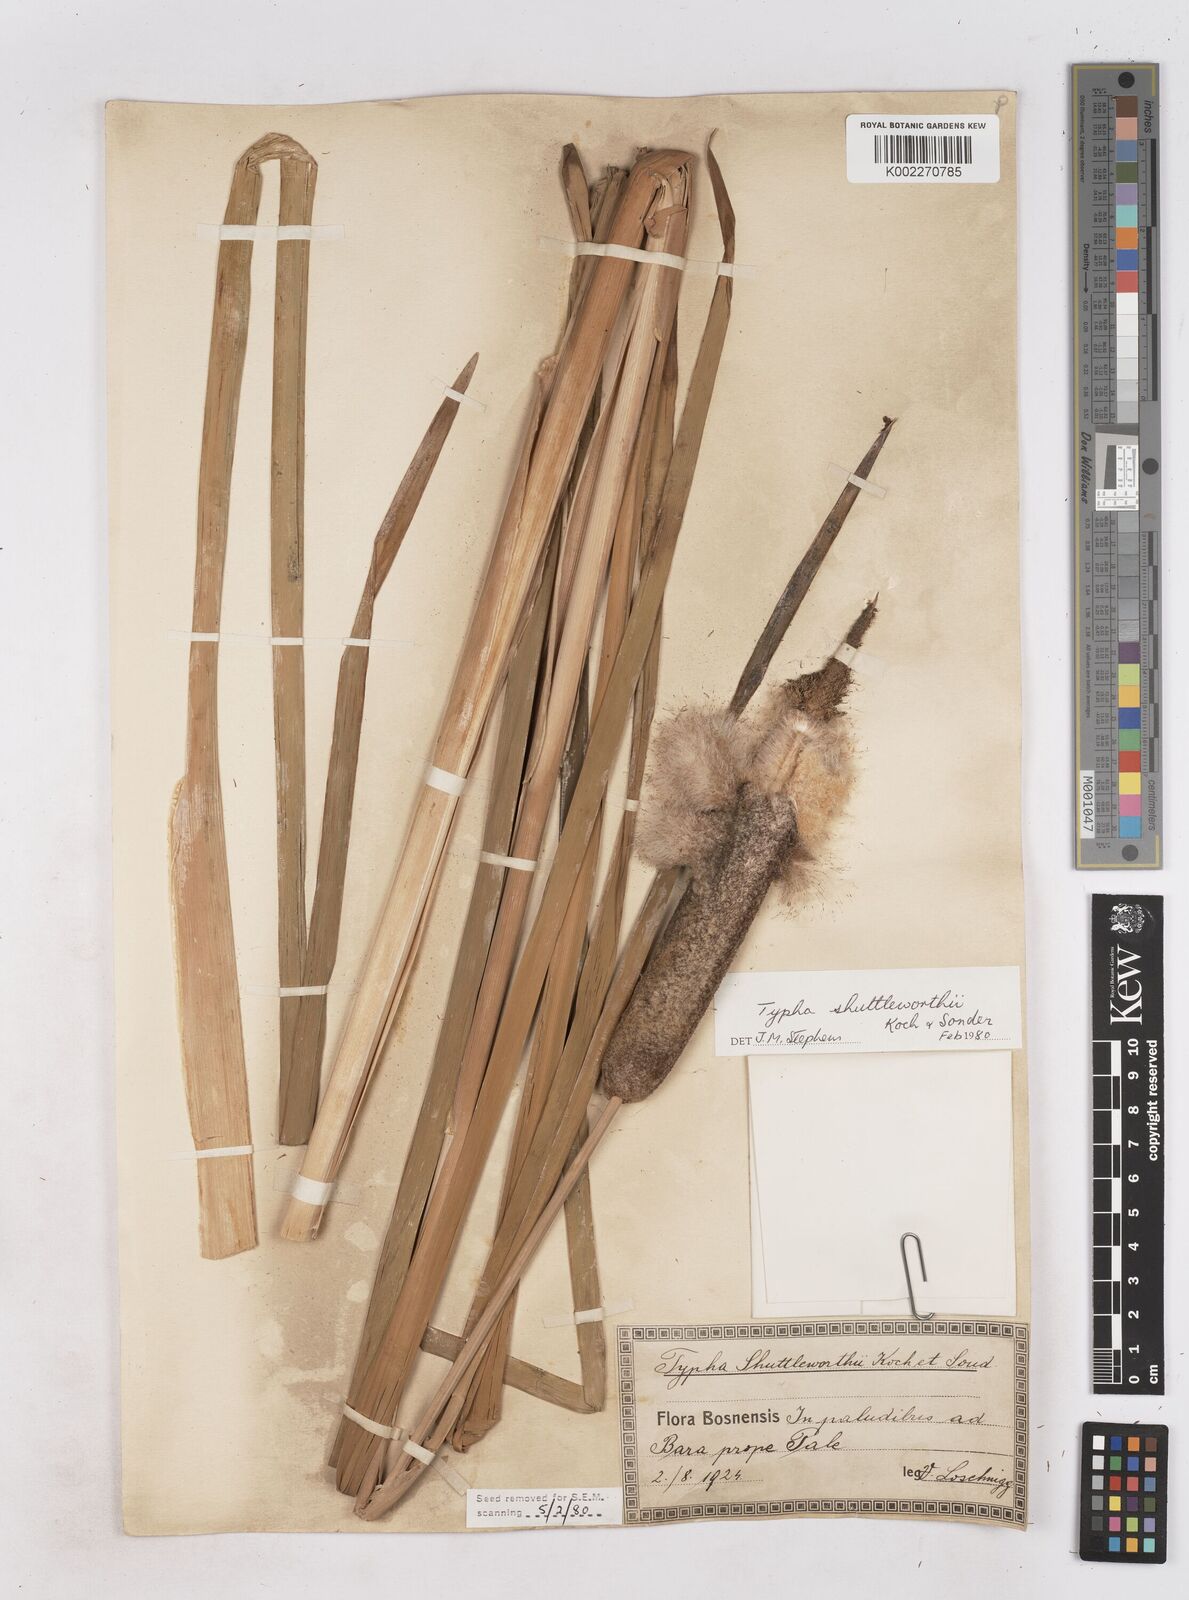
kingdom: Plantae
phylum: Tracheophyta
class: Liliopsida
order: Poales
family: Typhaceae
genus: Typha
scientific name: Typha shuttleworthii
